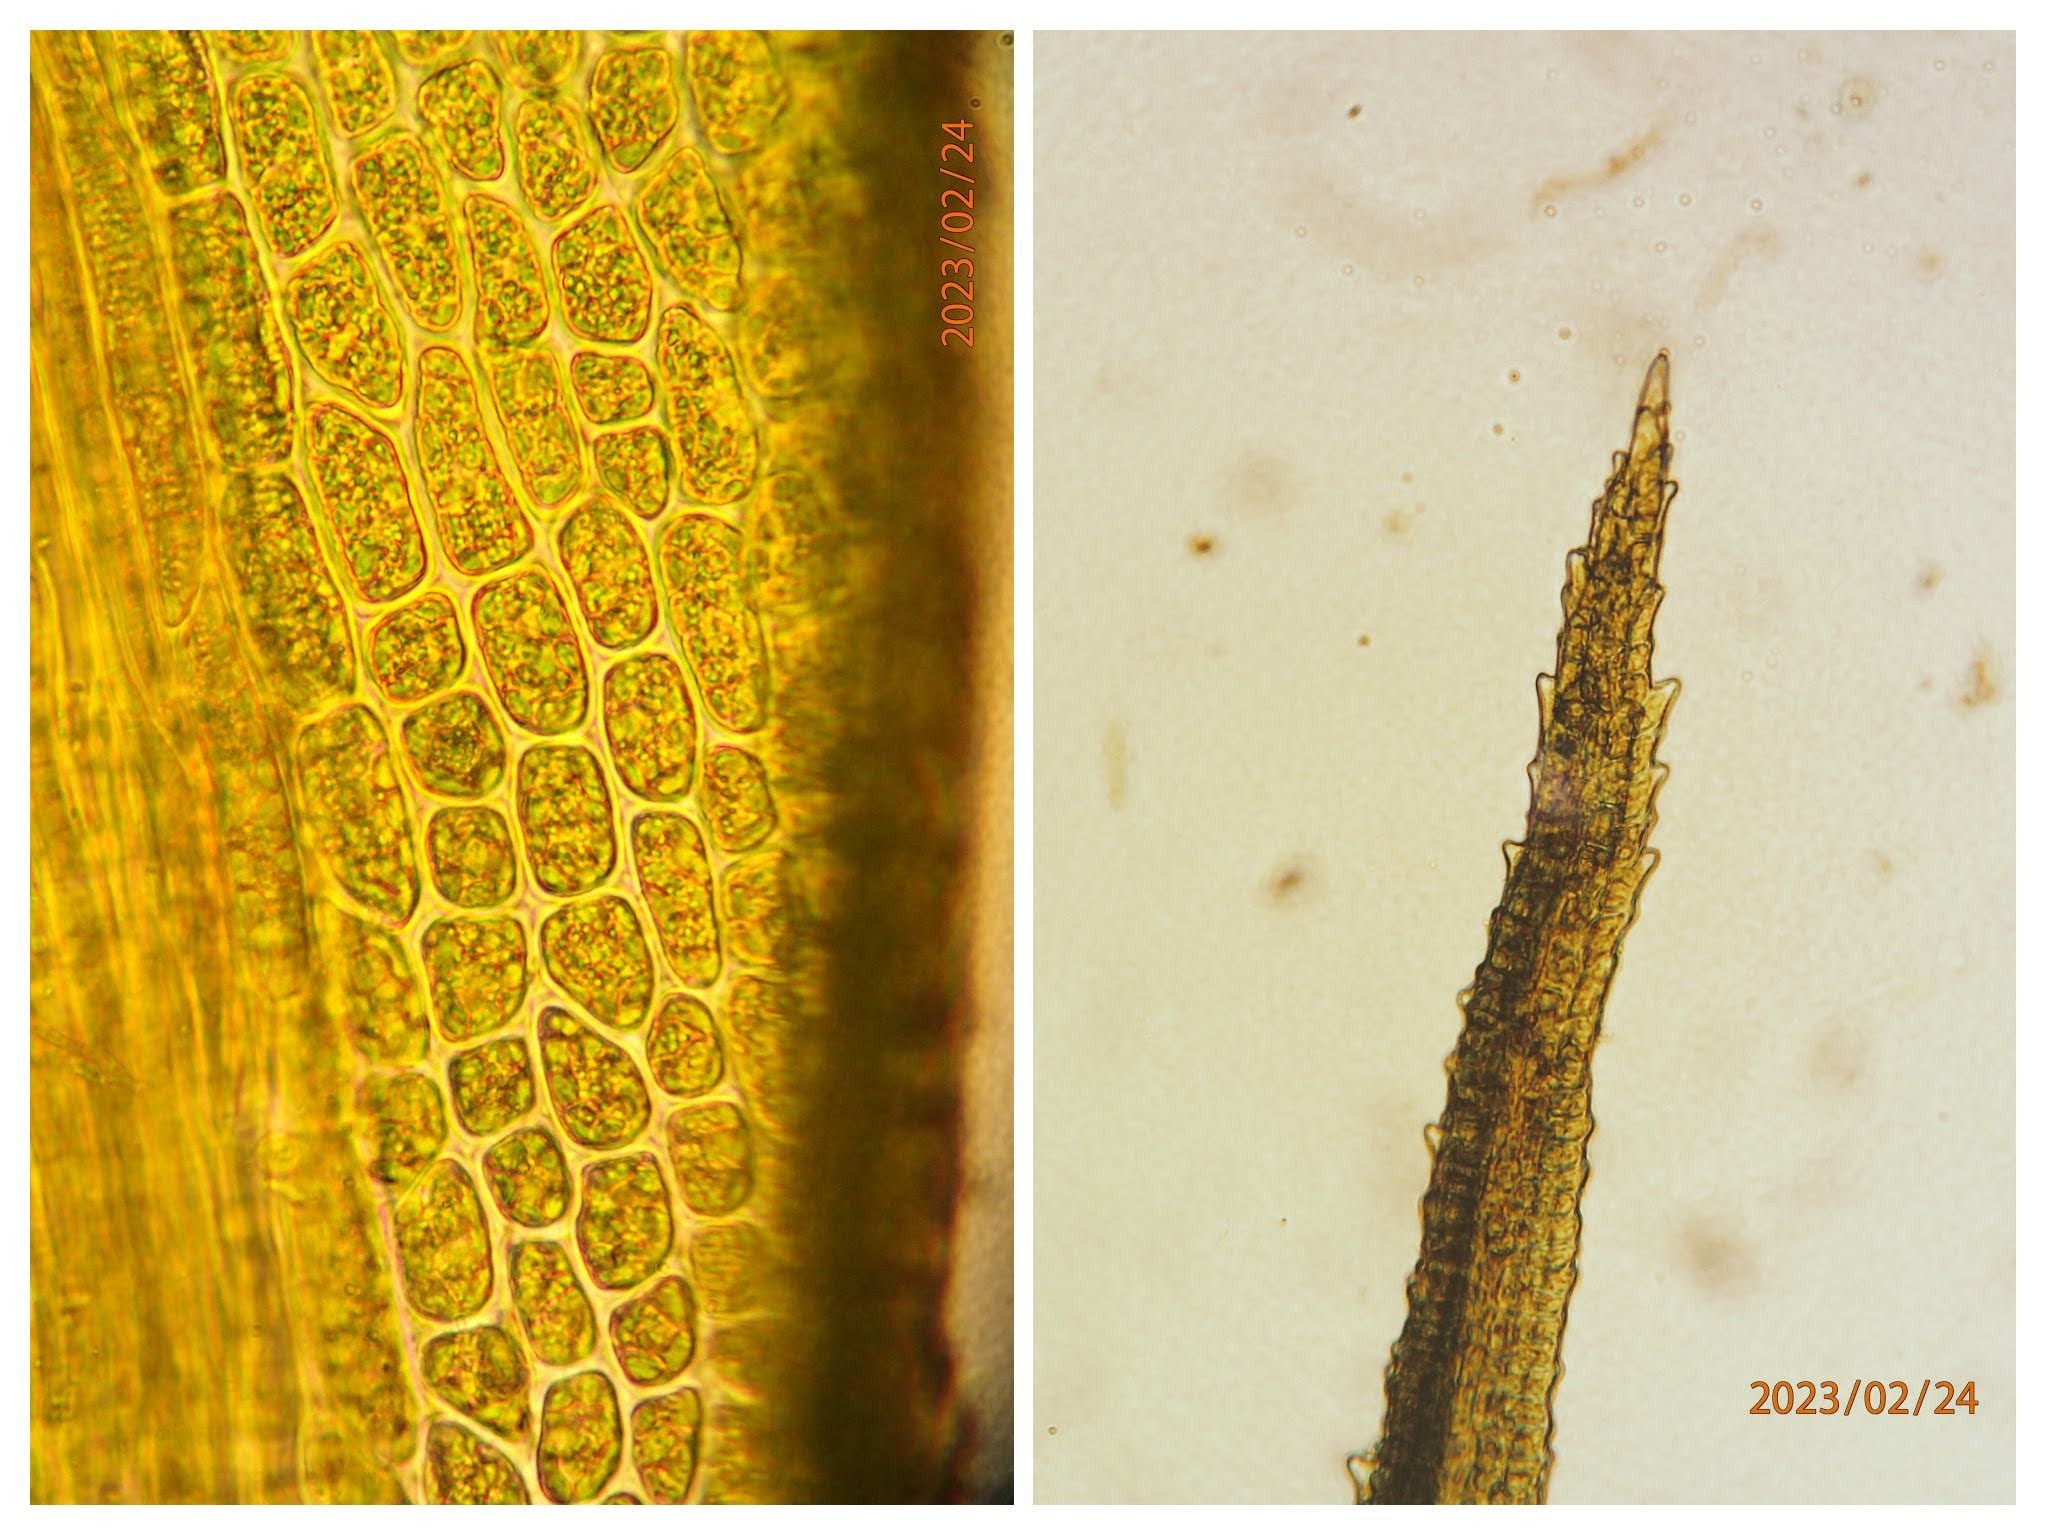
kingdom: Plantae
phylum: Bryophyta
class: Bryopsida
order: Dicranales
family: Dicranaceae
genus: Orthodicranum
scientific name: Orthodicranum montanum
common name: Tæt tyndvinge
